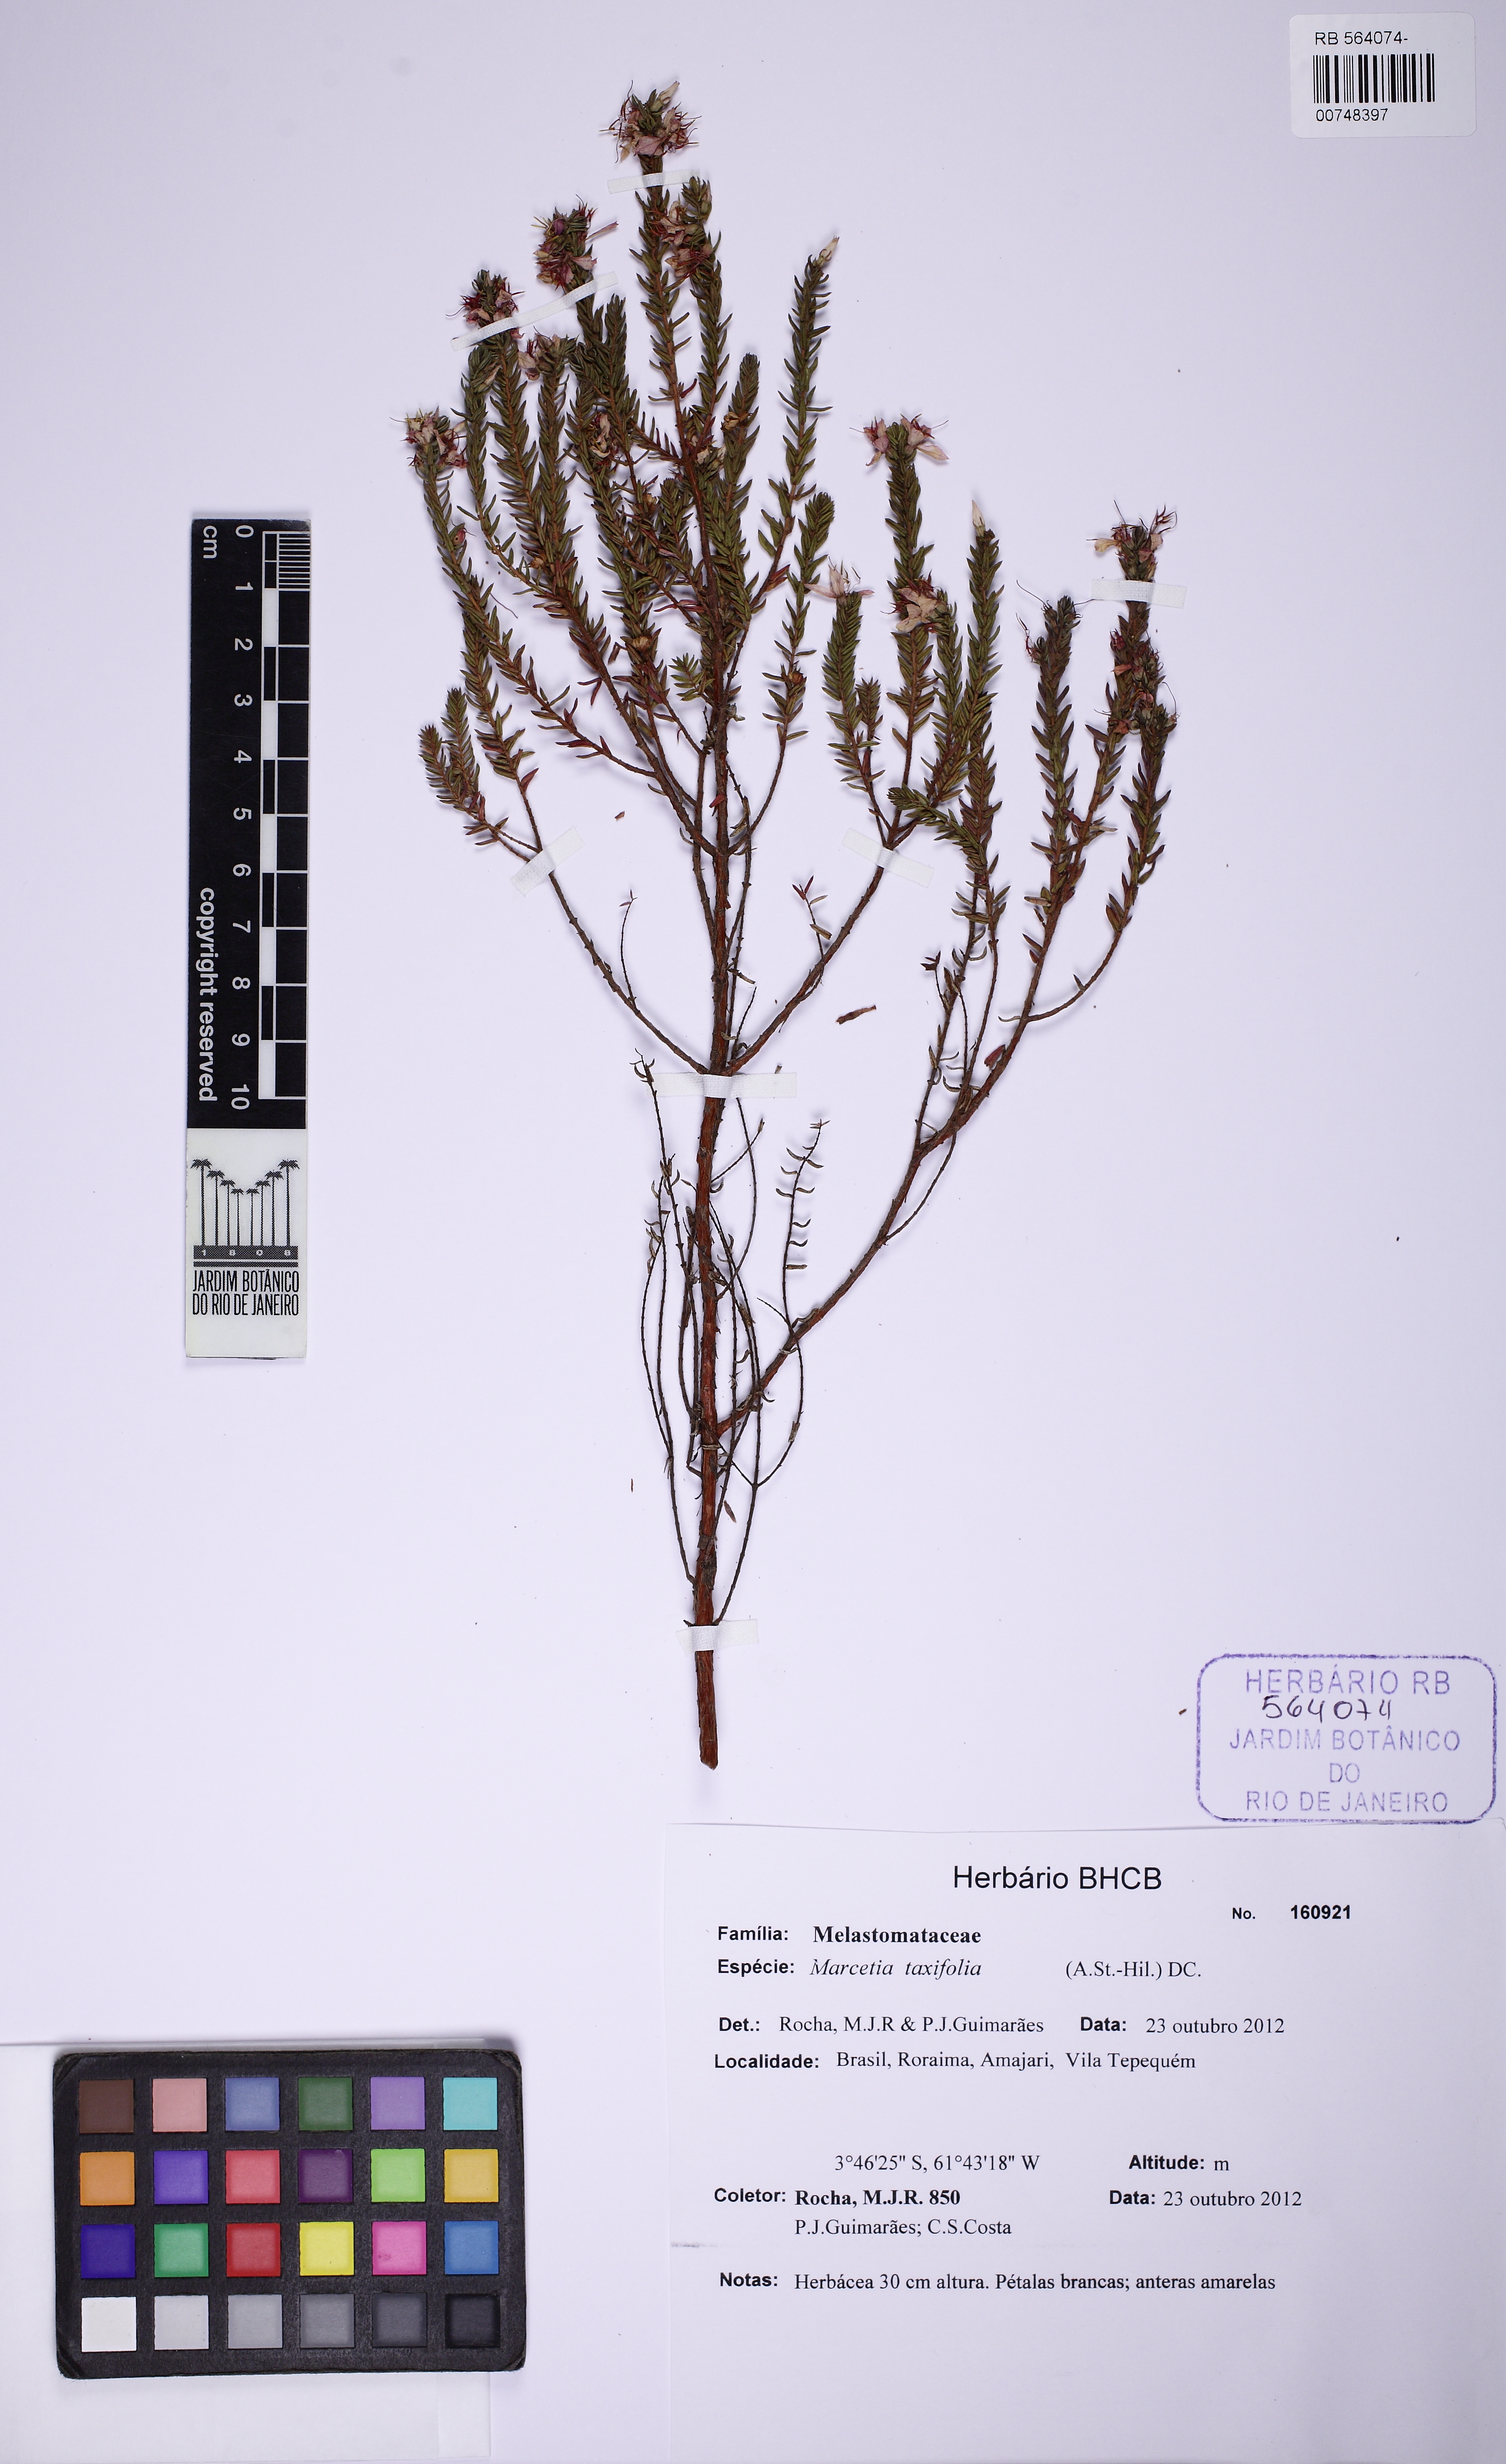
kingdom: Plantae
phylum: Tracheophyta
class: Magnoliopsida
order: Myrtales
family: Melastomataceae
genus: Marcetia
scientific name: Marcetia taxifolia
